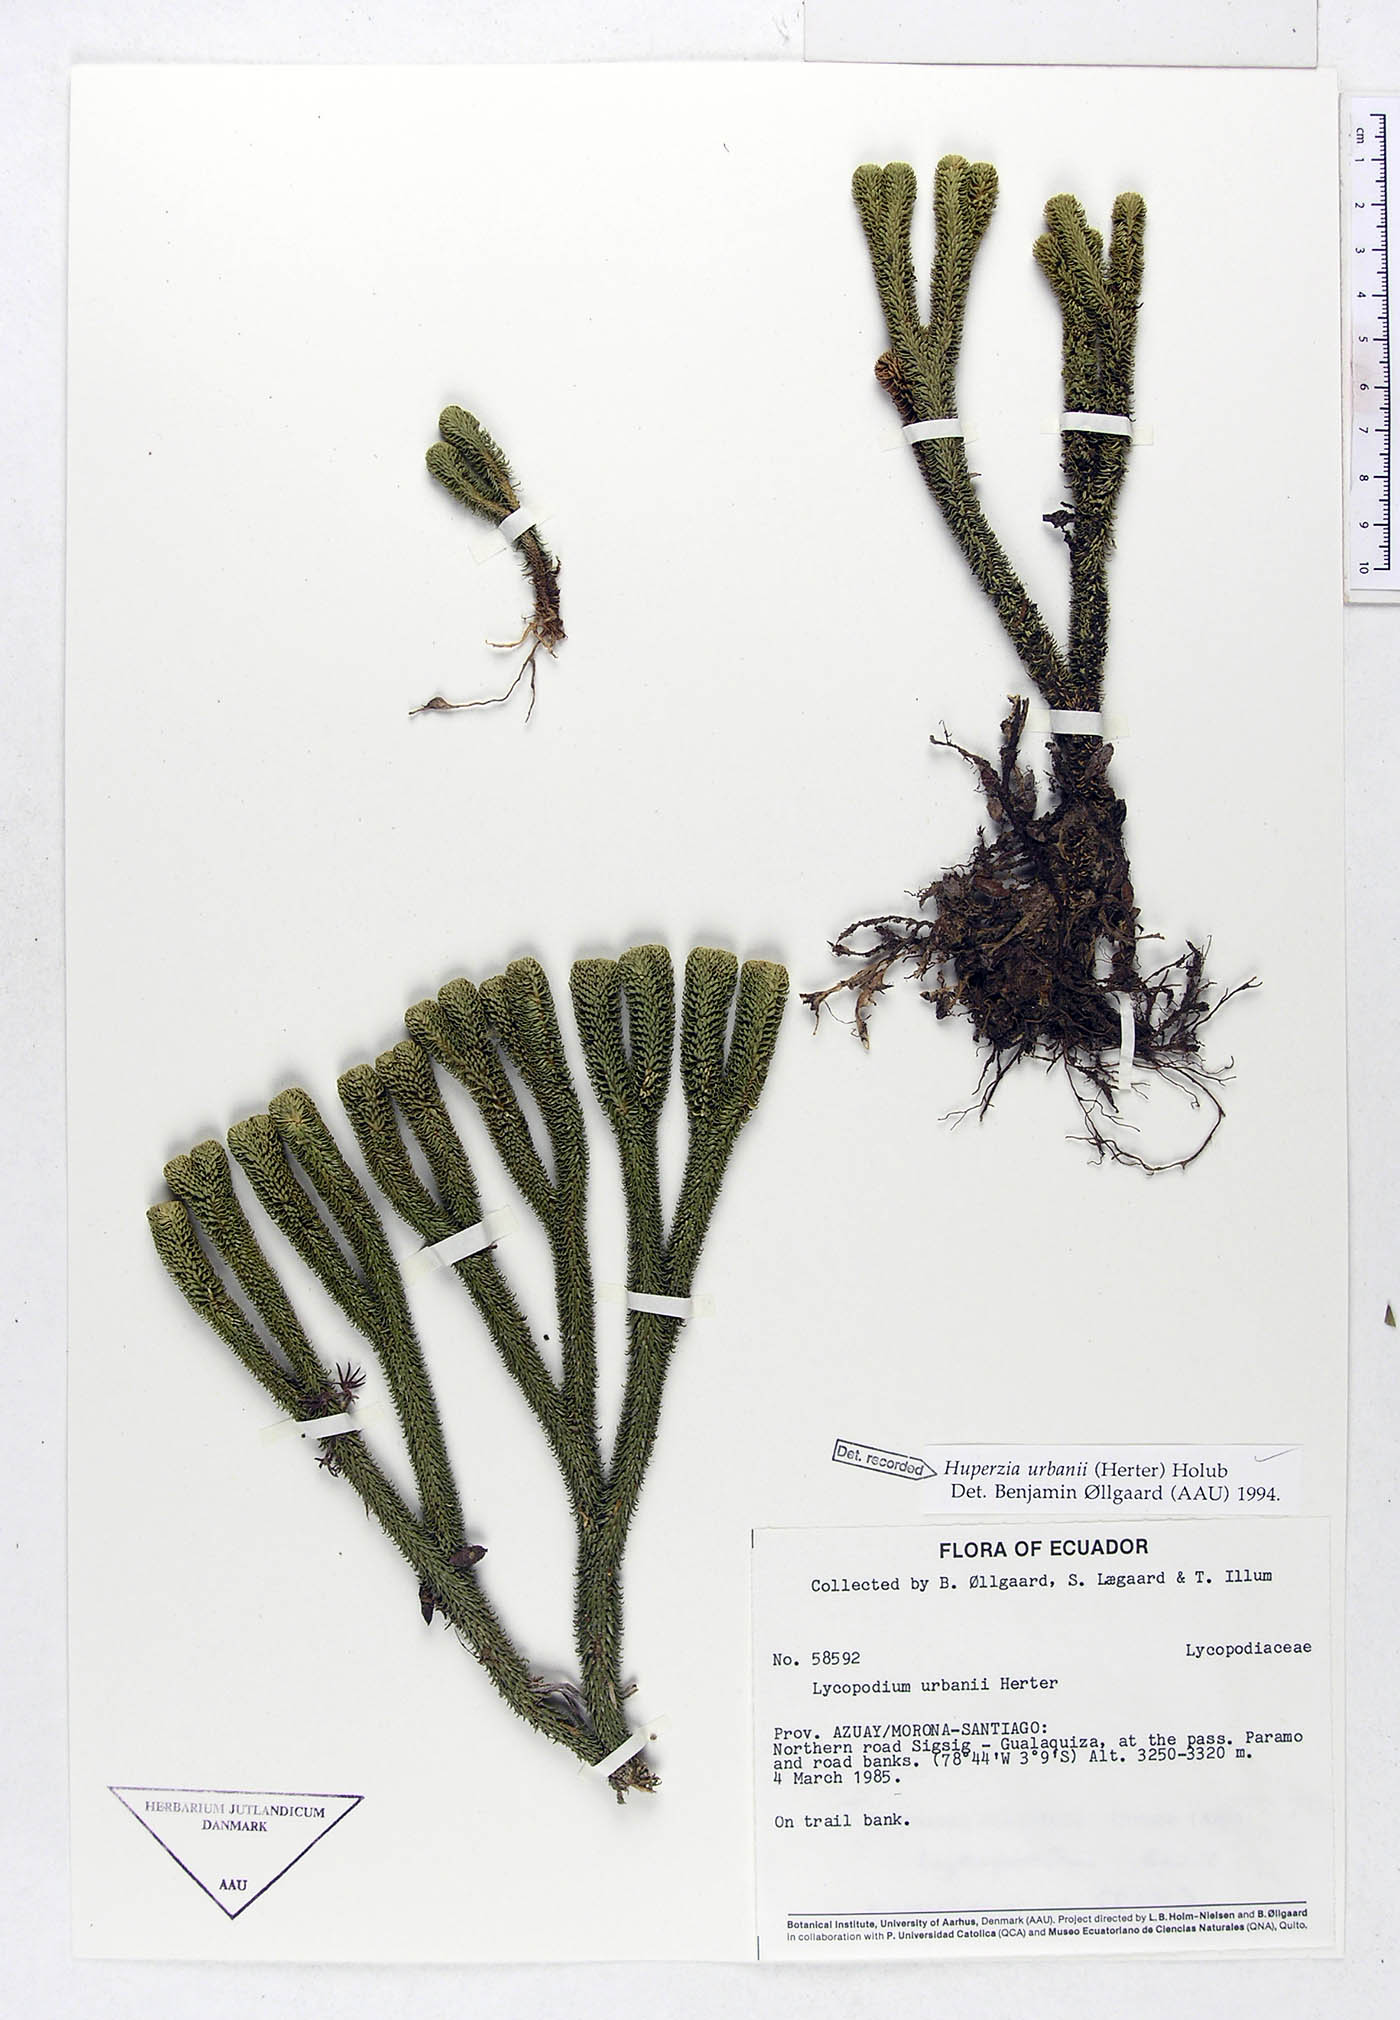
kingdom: Plantae
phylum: Tracheophyta
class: Lycopodiopsida
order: Lycopodiales
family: Lycopodiaceae
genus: Phlegmariurus
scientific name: Phlegmariurus urbanii
